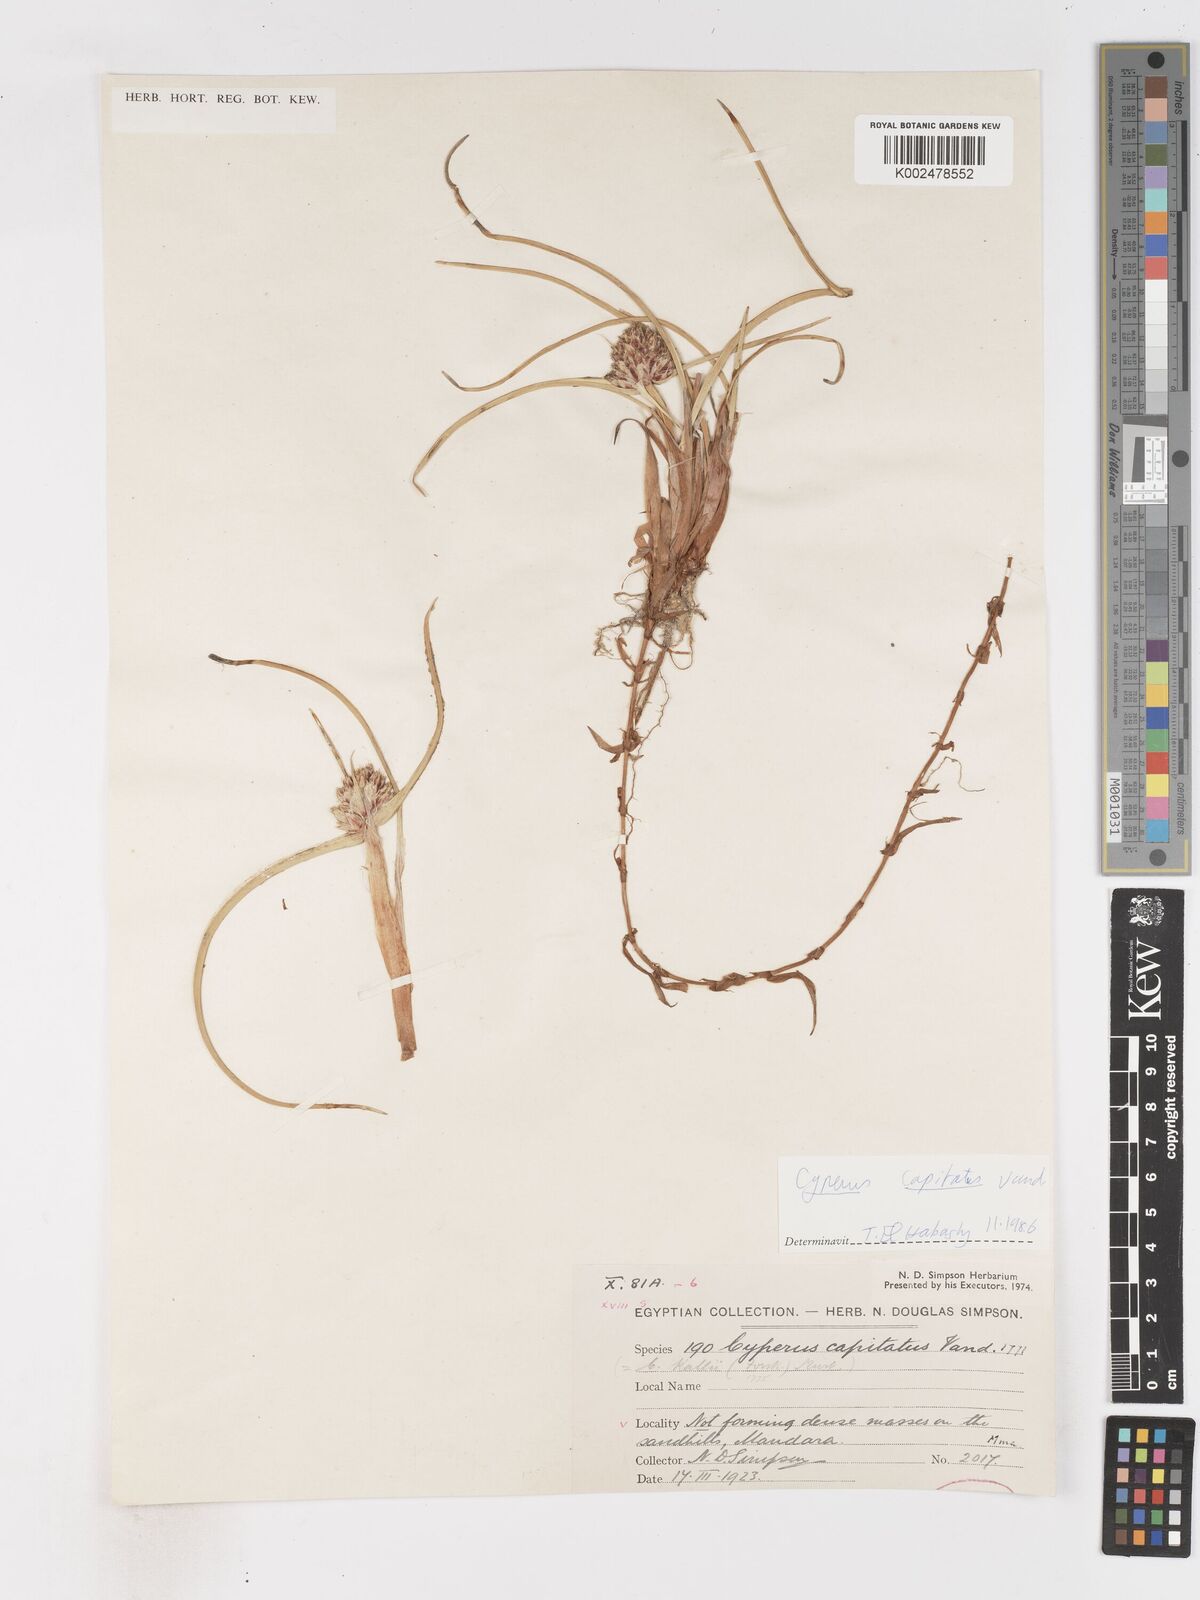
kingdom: Plantae
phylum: Tracheophyta
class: Liliopsida
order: Poales
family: Cyperaceae
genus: Cyperus
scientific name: Cyperus capitatus
